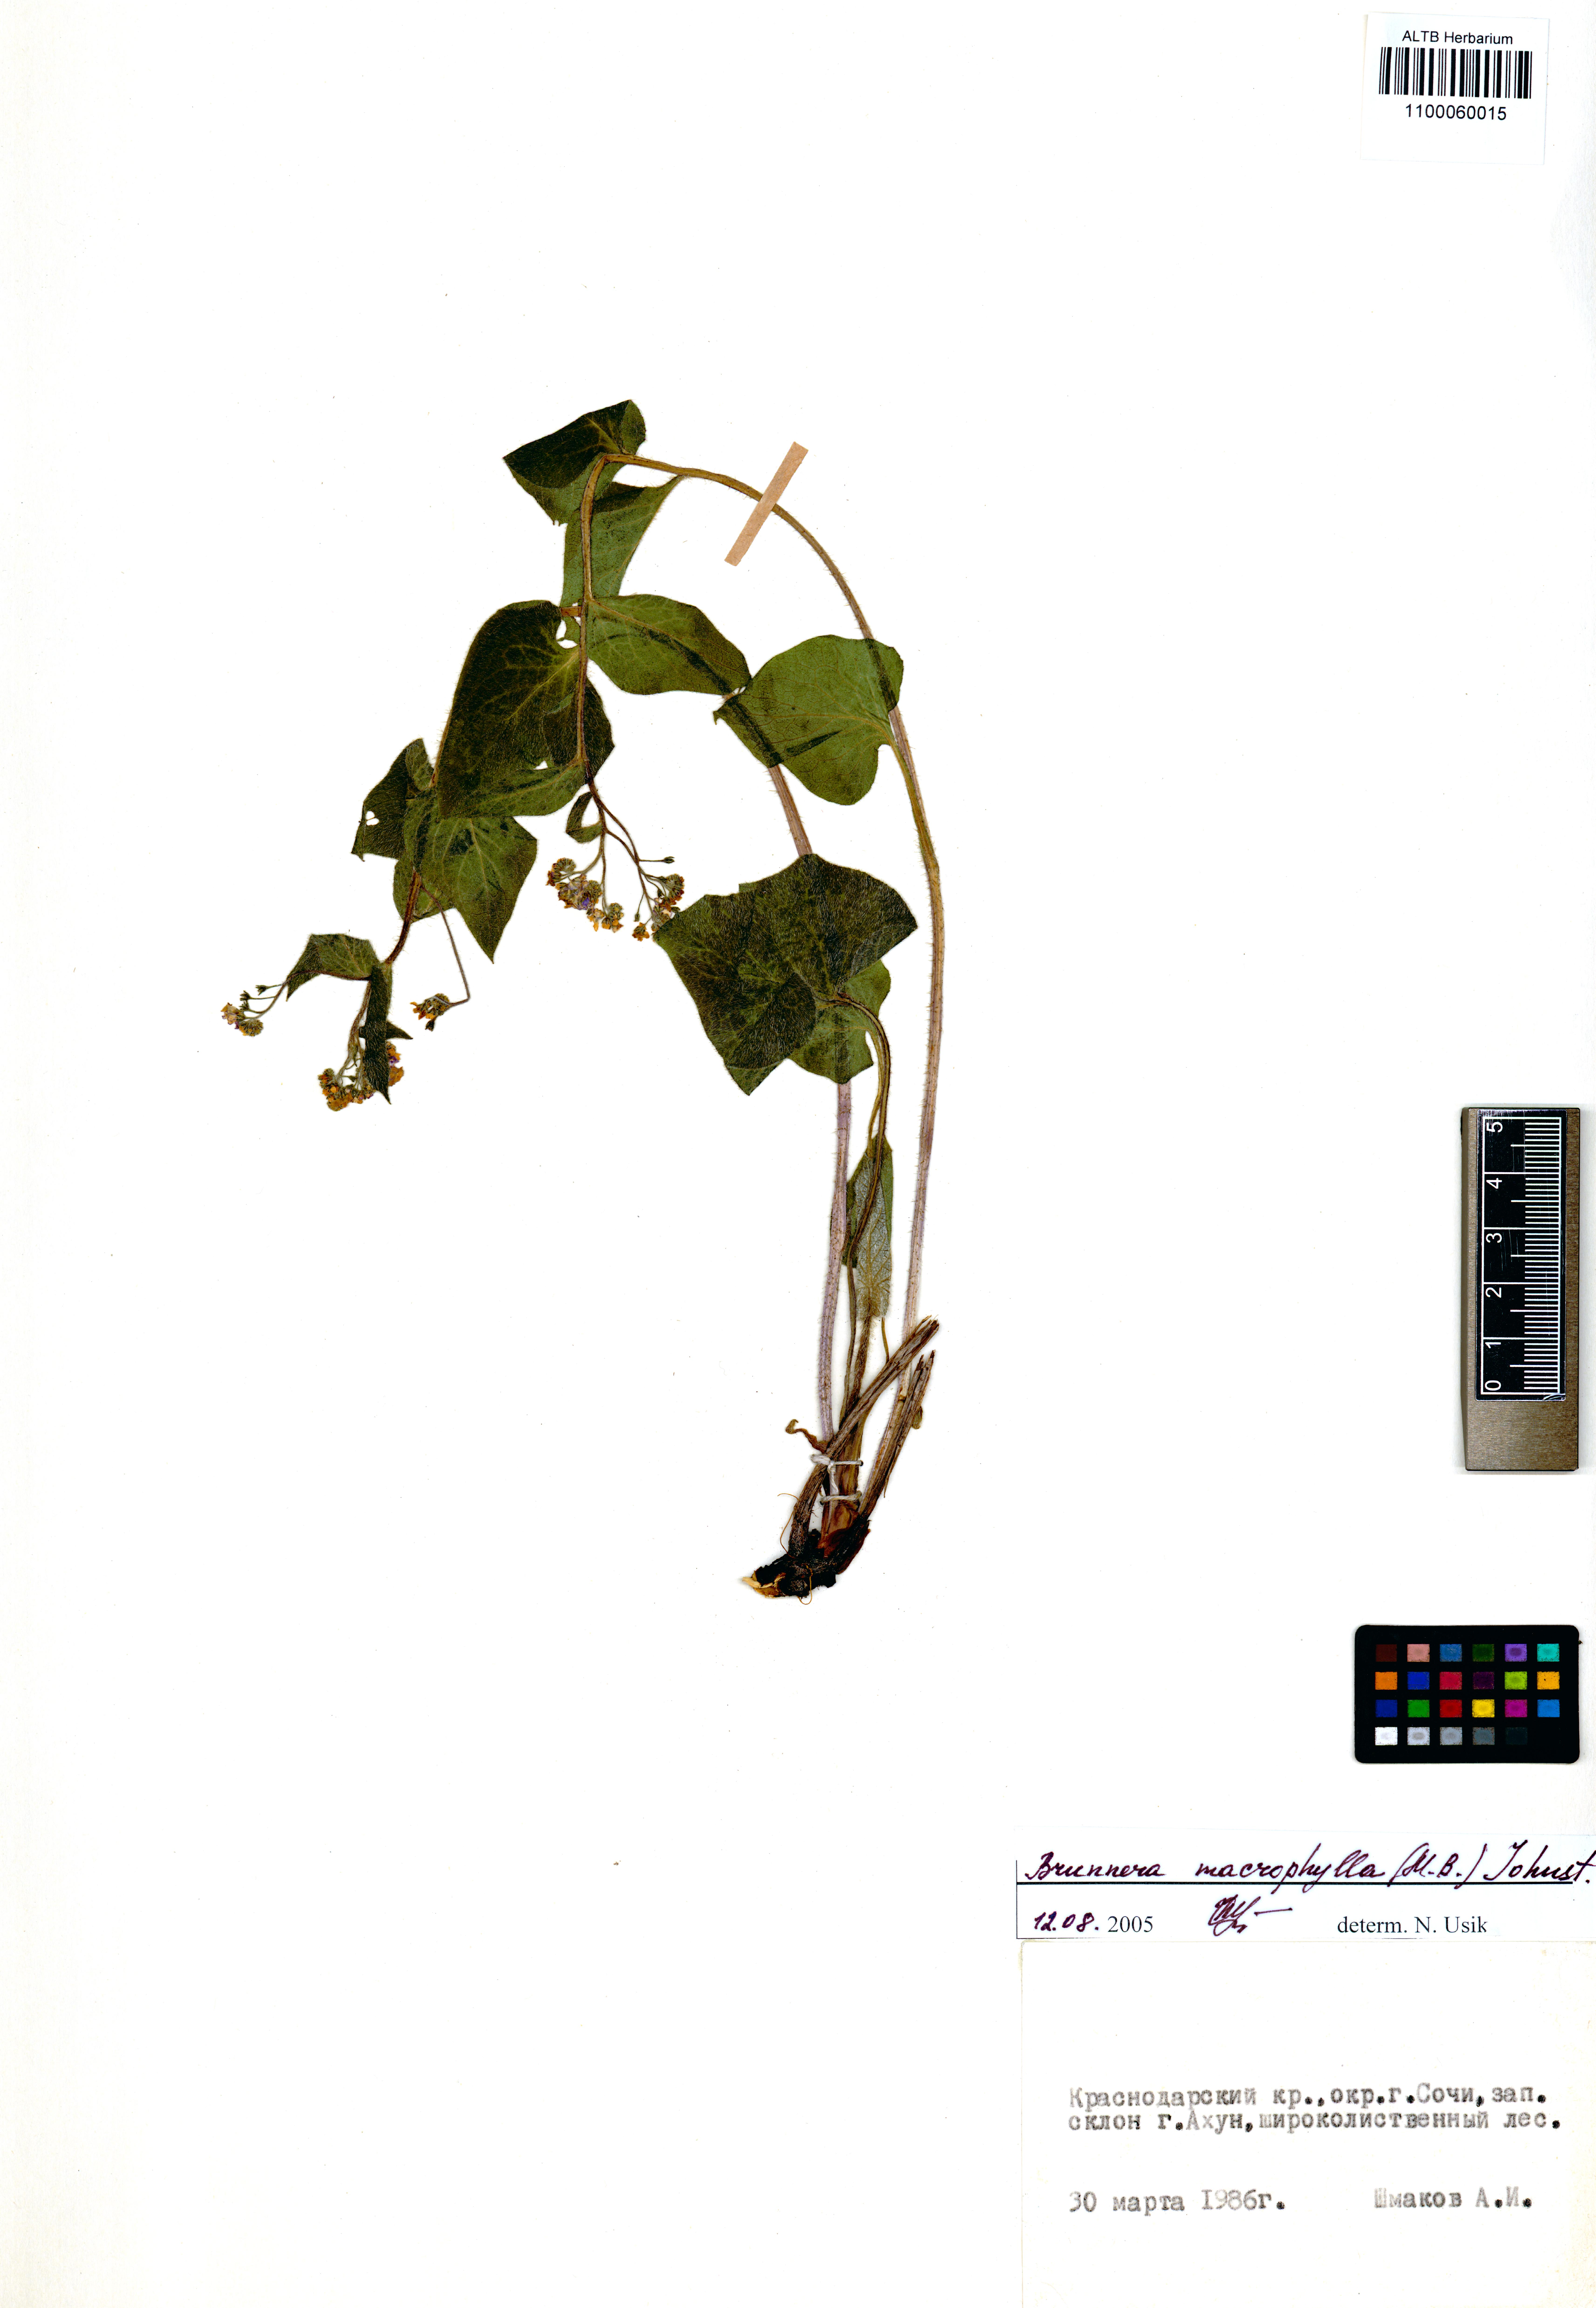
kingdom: Plantae
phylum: Tracheophyta
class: Magnoliopsida
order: Boraginales
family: Boraginaceae
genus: Brunnera
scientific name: Brunnera macrophylla
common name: Great forget-me-not
